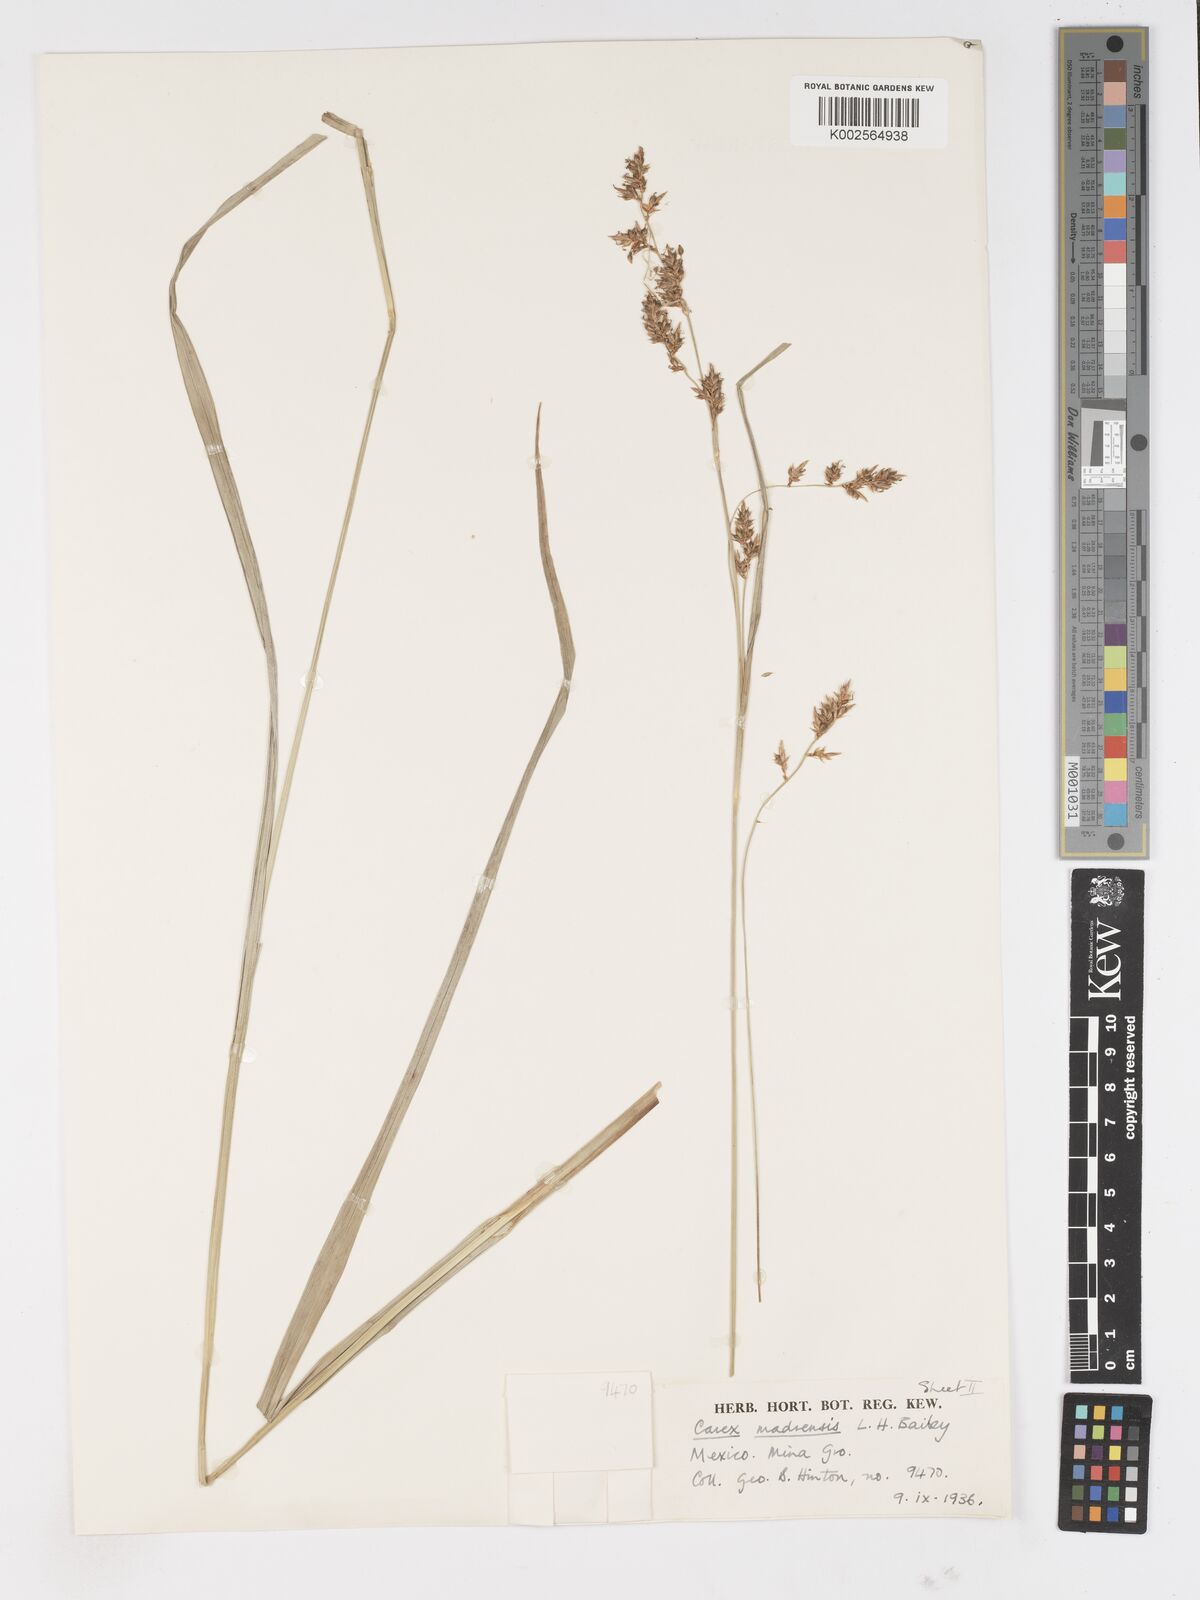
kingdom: Plantae
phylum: Tracheophyta
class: Liliopsida
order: Poales
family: Cyperaceae
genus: Carex
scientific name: Carex madrensis
